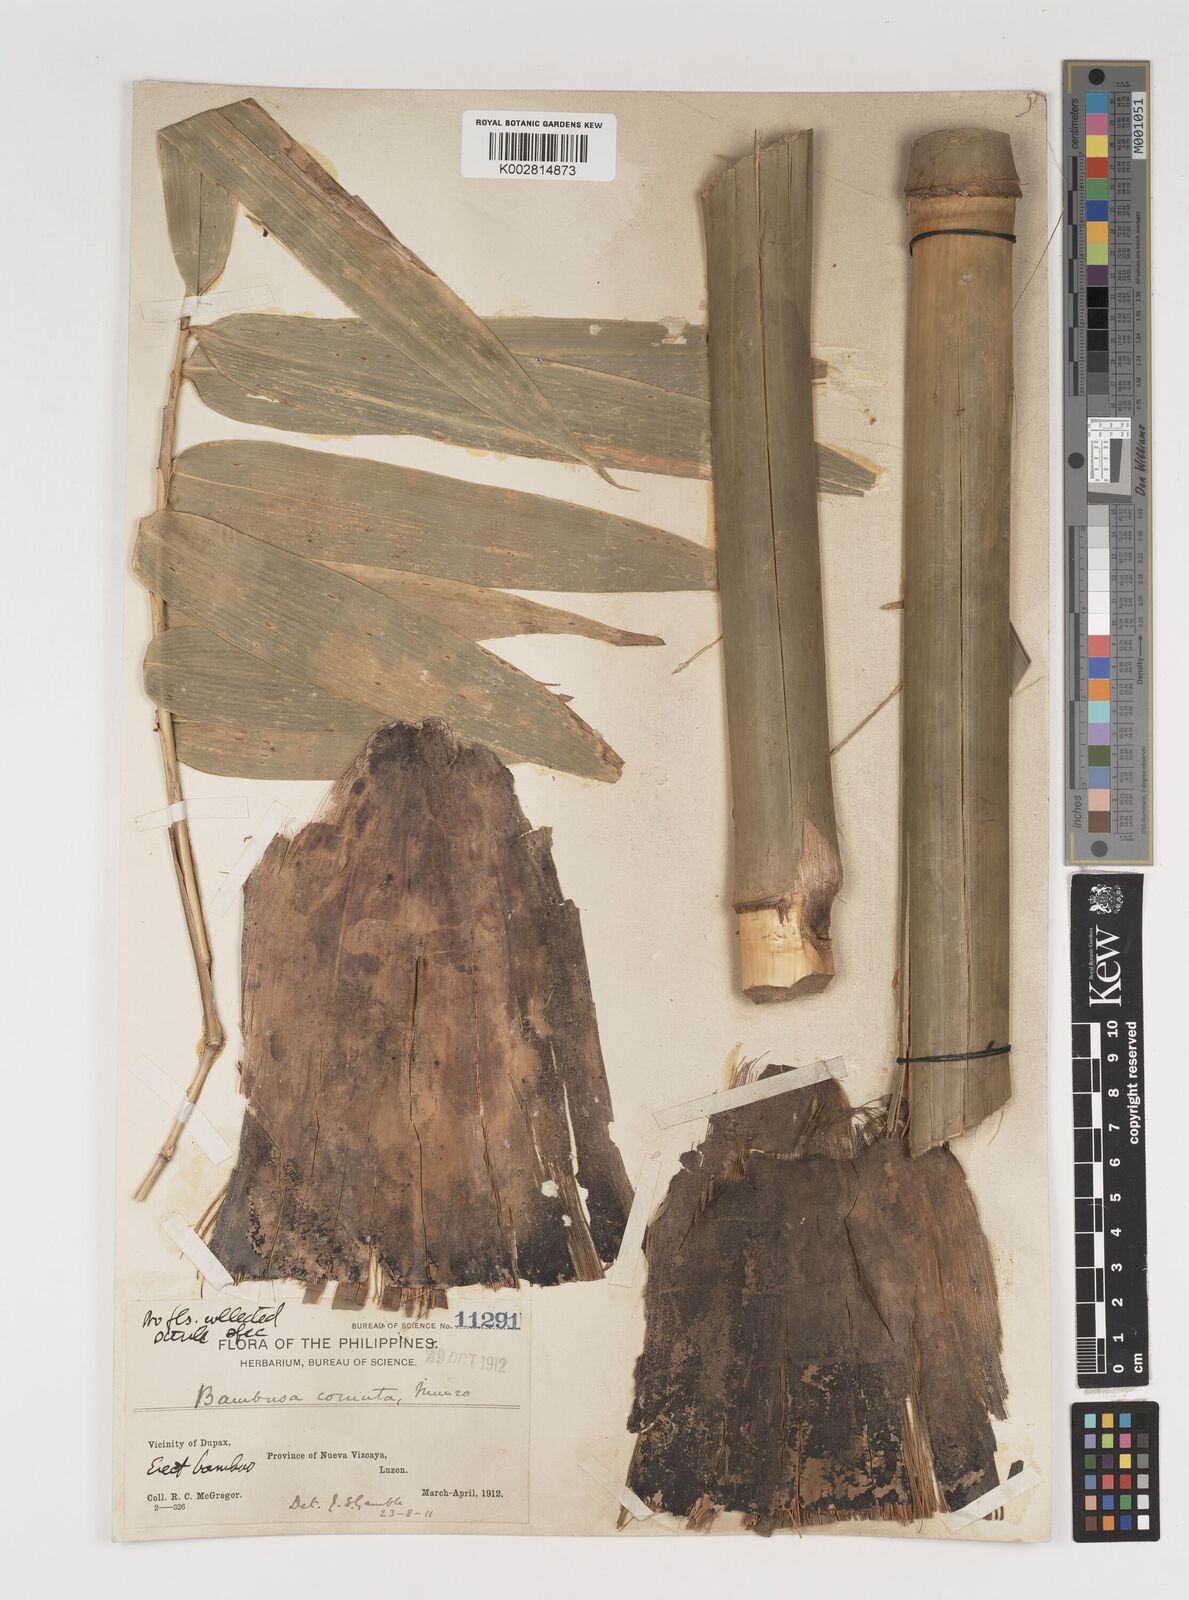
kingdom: Plantae
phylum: Tracheophyta
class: Liliopsida
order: Poales
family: Poaceae
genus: Fimbribambusa
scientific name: Fimbribambusa horsfieldii
